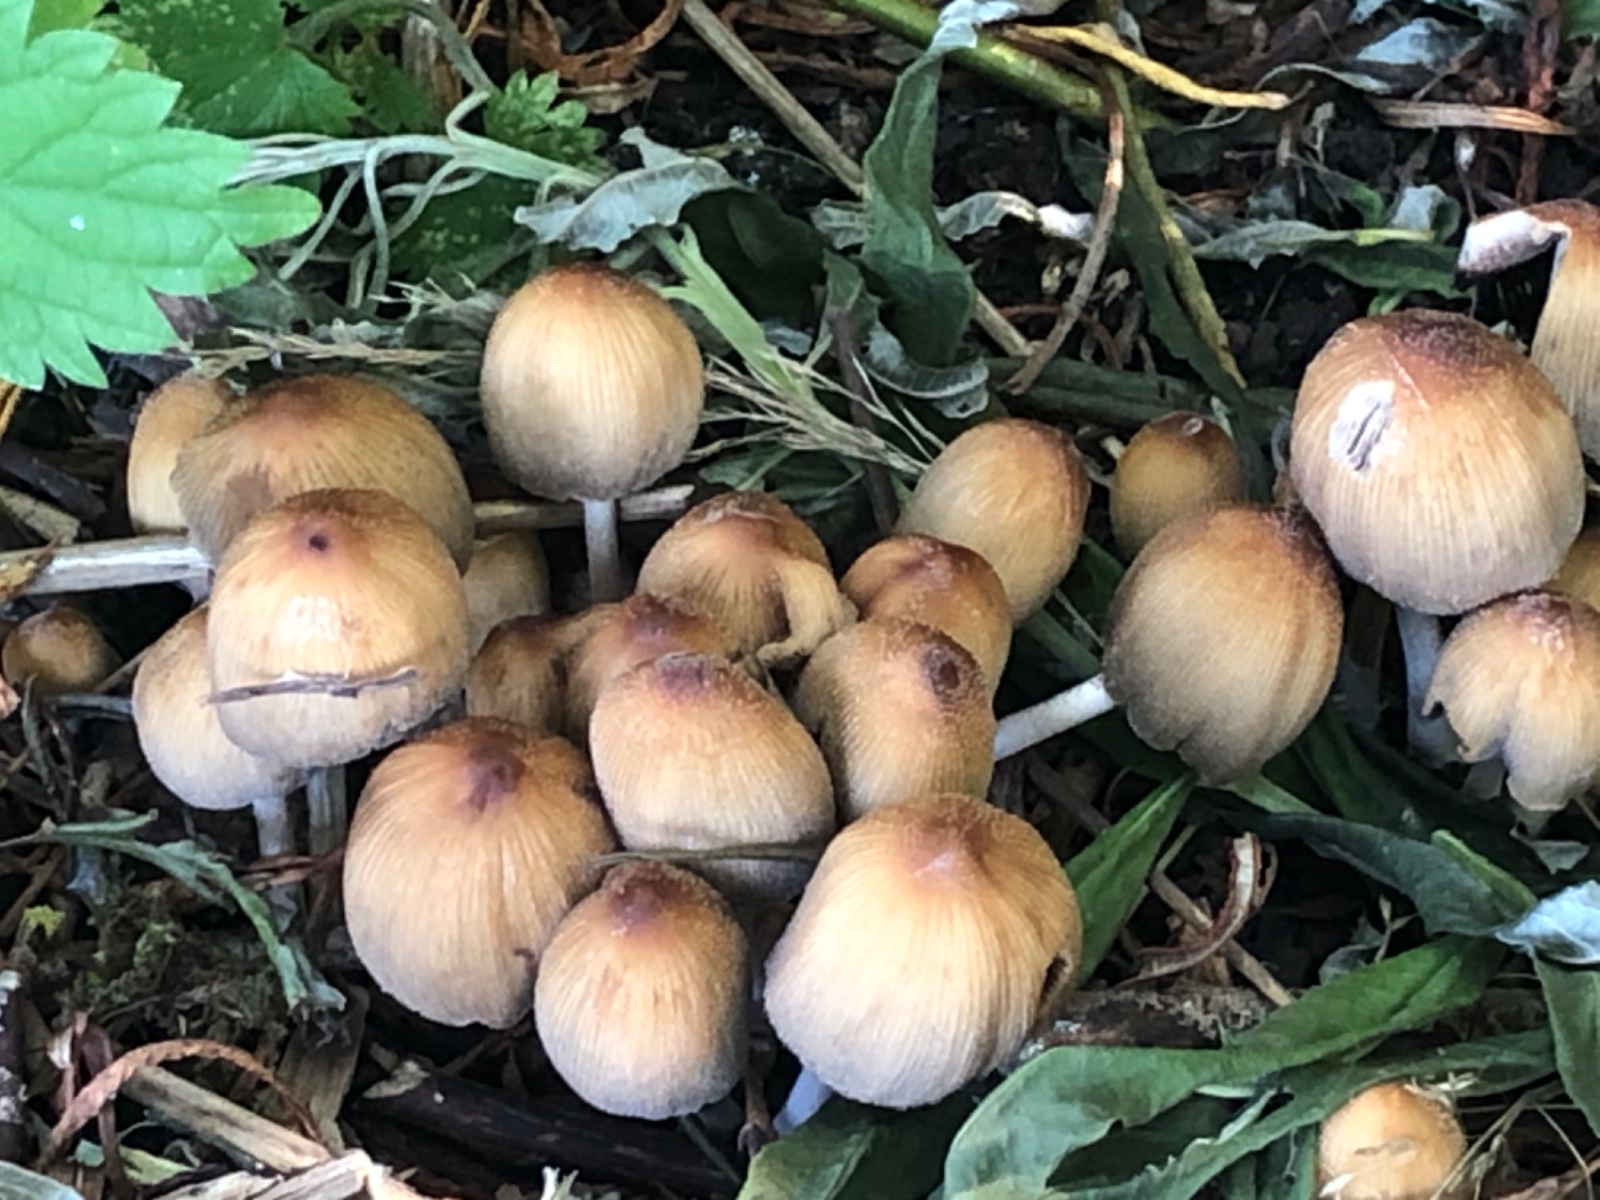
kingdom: Fungi
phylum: Basidiomycota
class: Agaricomycetes
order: Agaricales
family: Psathyrellaceae
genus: Coprinellus
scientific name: Coprinellus micaceus
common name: glimmer-blækhat
